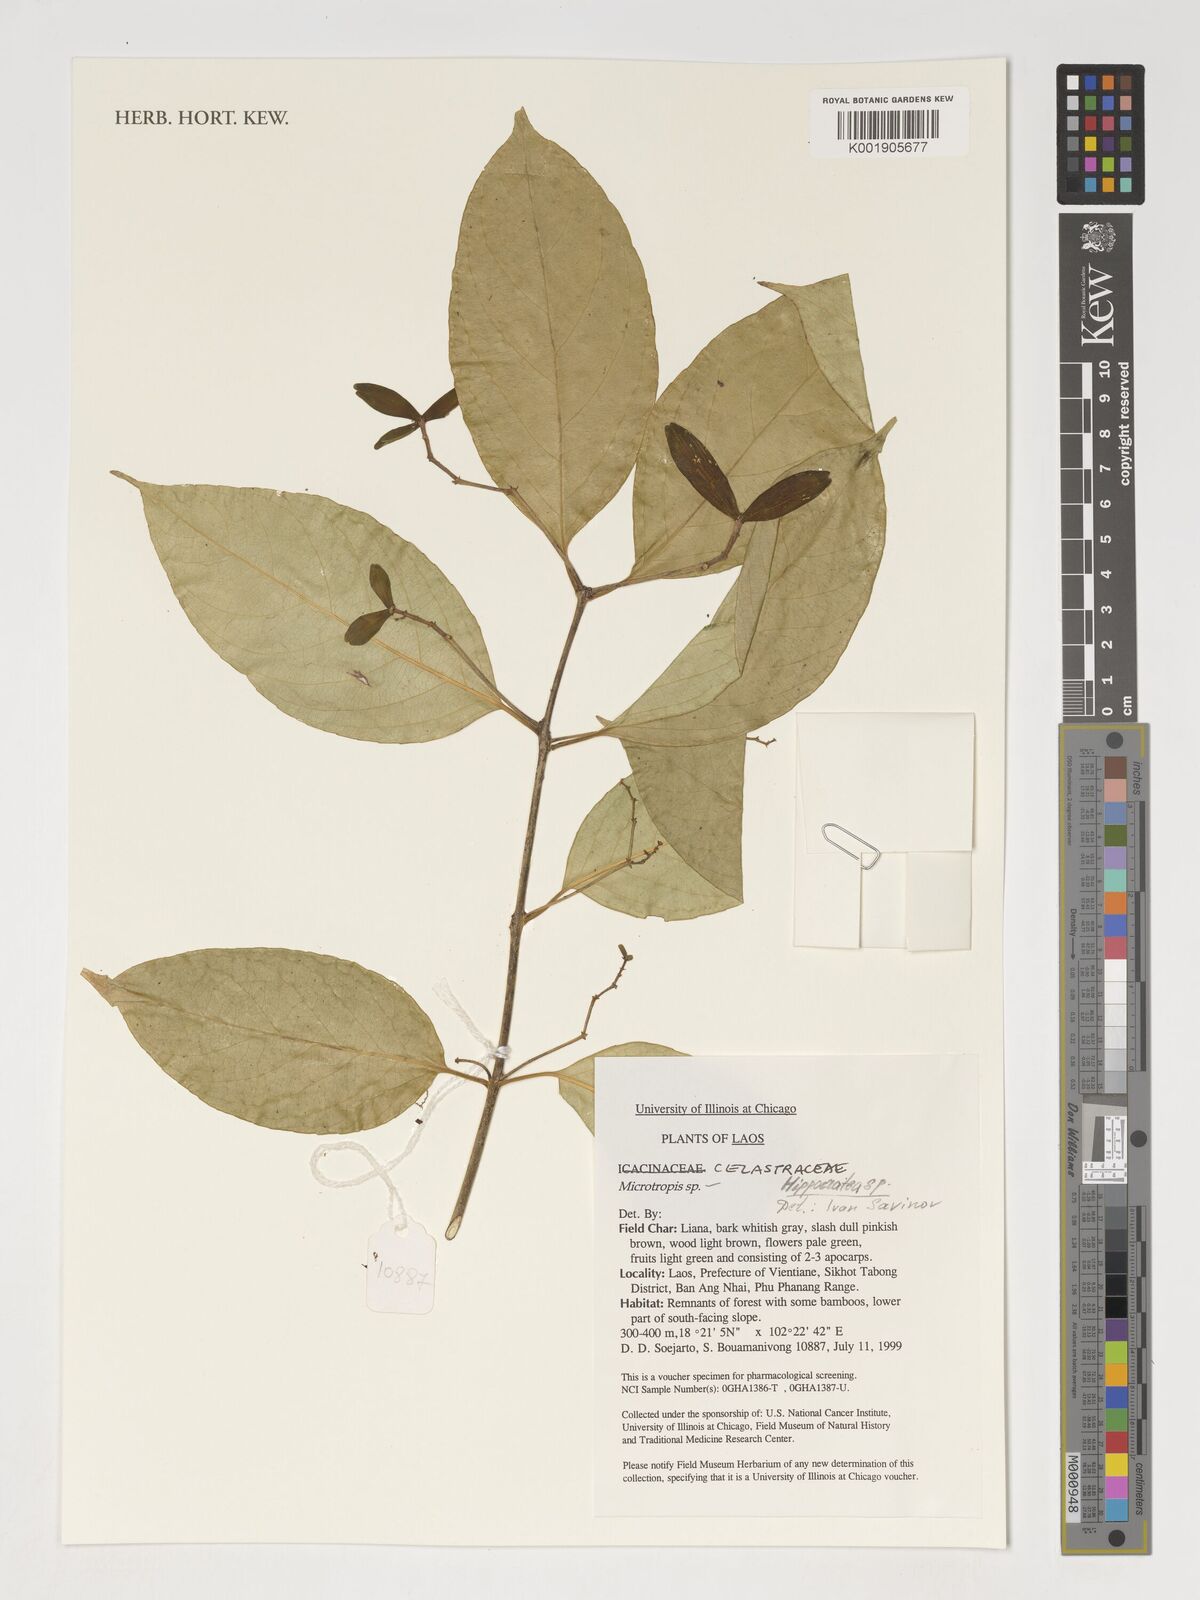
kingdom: Plantae
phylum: Tracheophyta
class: Magnoliopsida
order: Celastrales
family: Celastraceae
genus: Hippocratea
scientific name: Hippocratea
